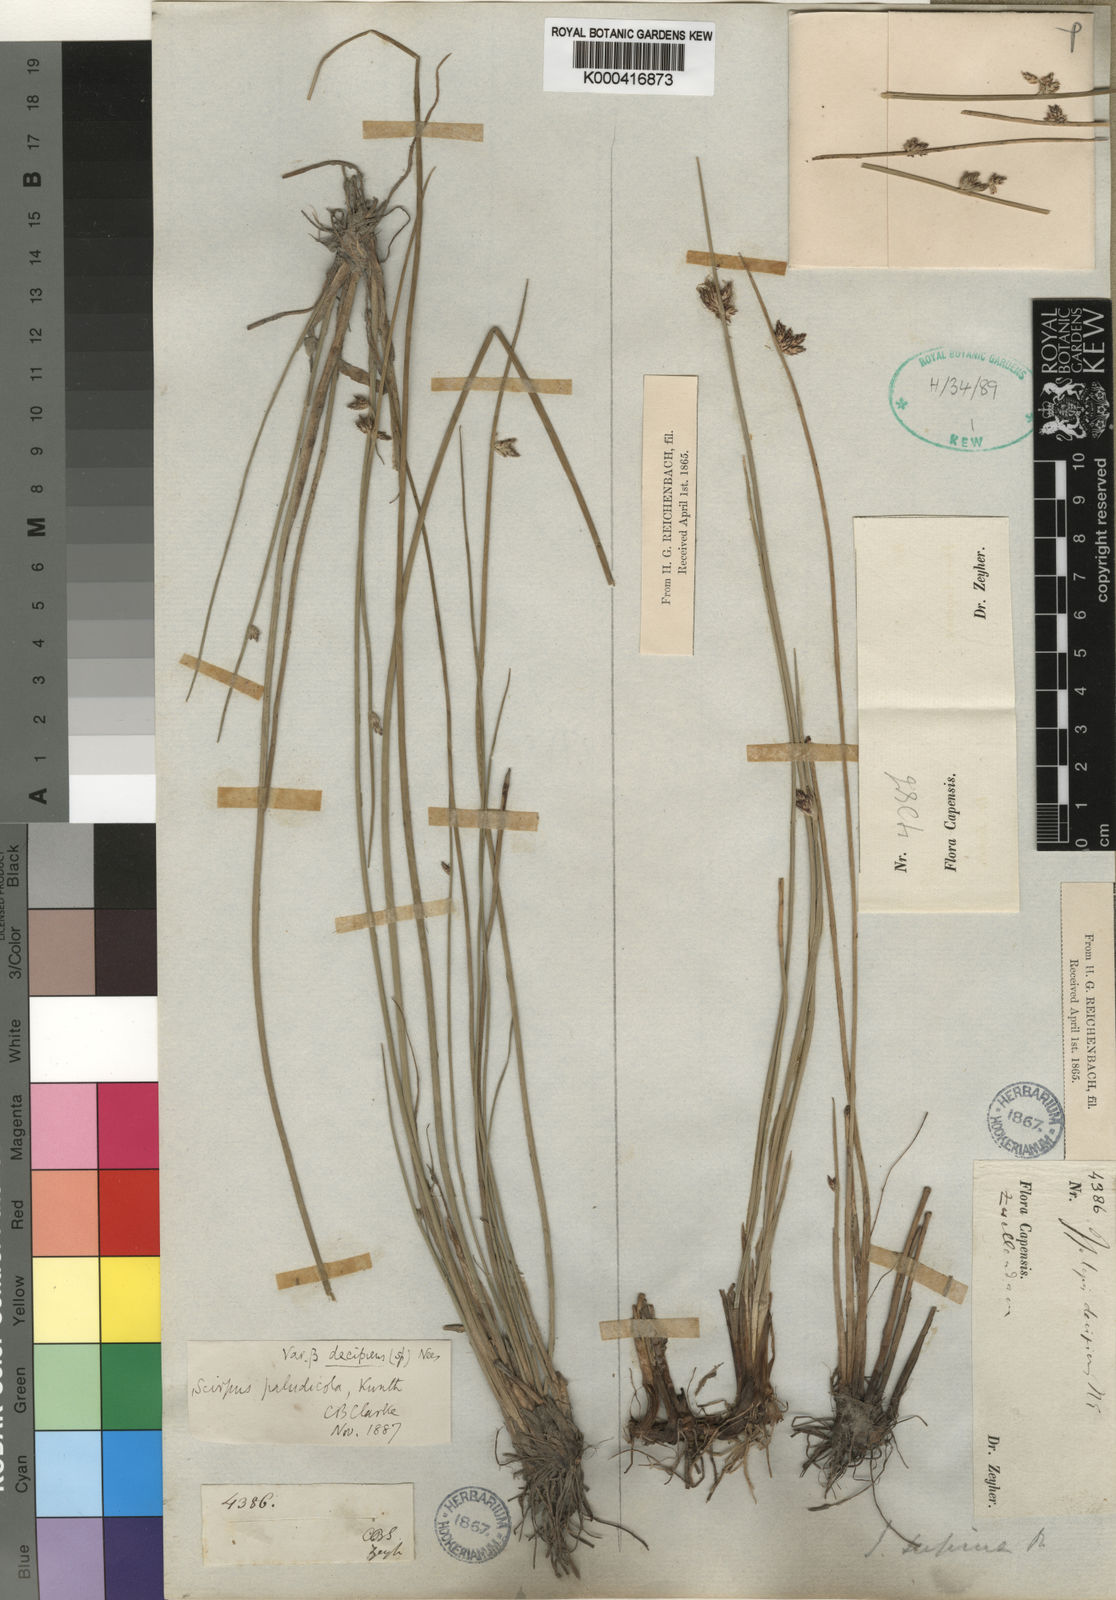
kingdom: Plantae
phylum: Tracheophyta
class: Liliopsida
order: Poales
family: Cyperaceae
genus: Schoenoplectus
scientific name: Schoenoplectus
